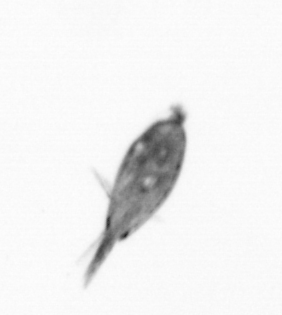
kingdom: Animalia
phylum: Arthropoda
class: Maxillopoda
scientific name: Maxillopoda
